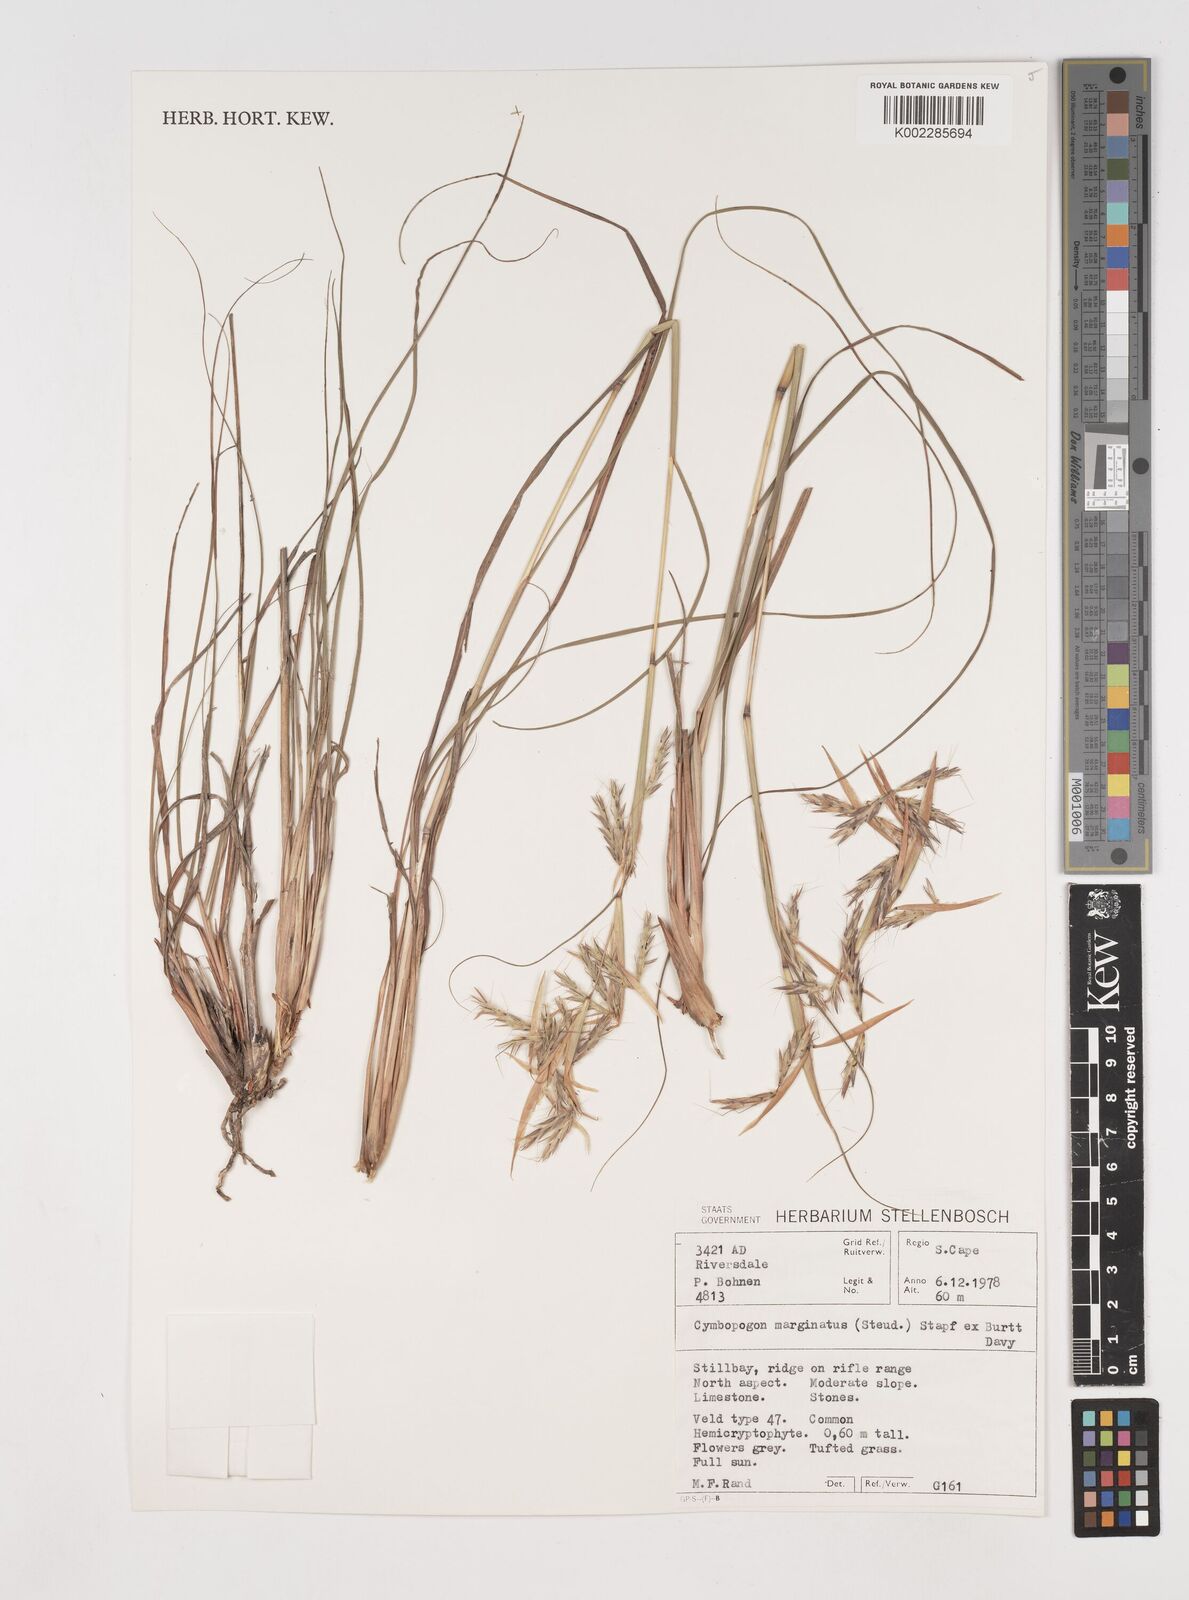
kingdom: Plantae
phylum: Tracheophyta
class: Liliopsida
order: Poales
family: Poaceae
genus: Cymbopogon
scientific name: Cymbopogon marginatus
